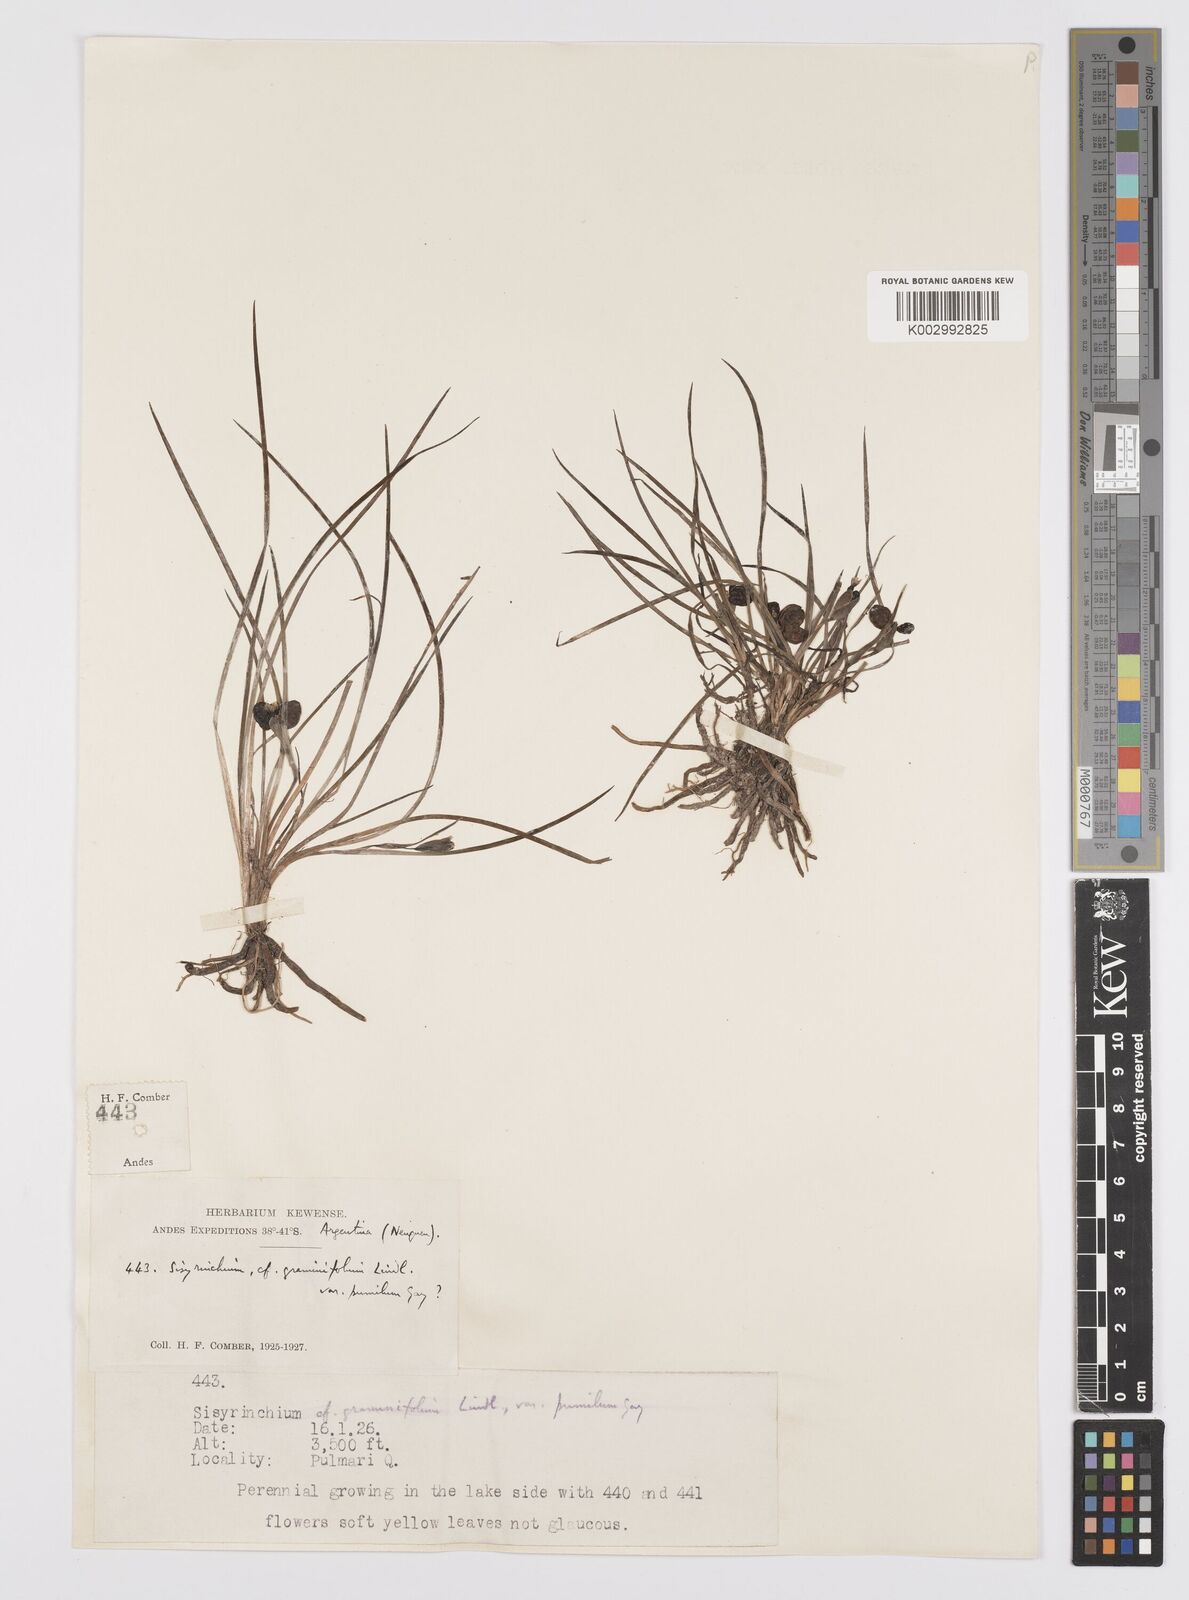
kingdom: Plantae
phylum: Tracheophyta
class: Liliopsida
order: Asparagales
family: Iridaceae
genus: Sisyrinchium
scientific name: Sisyrinchium graminifolium
